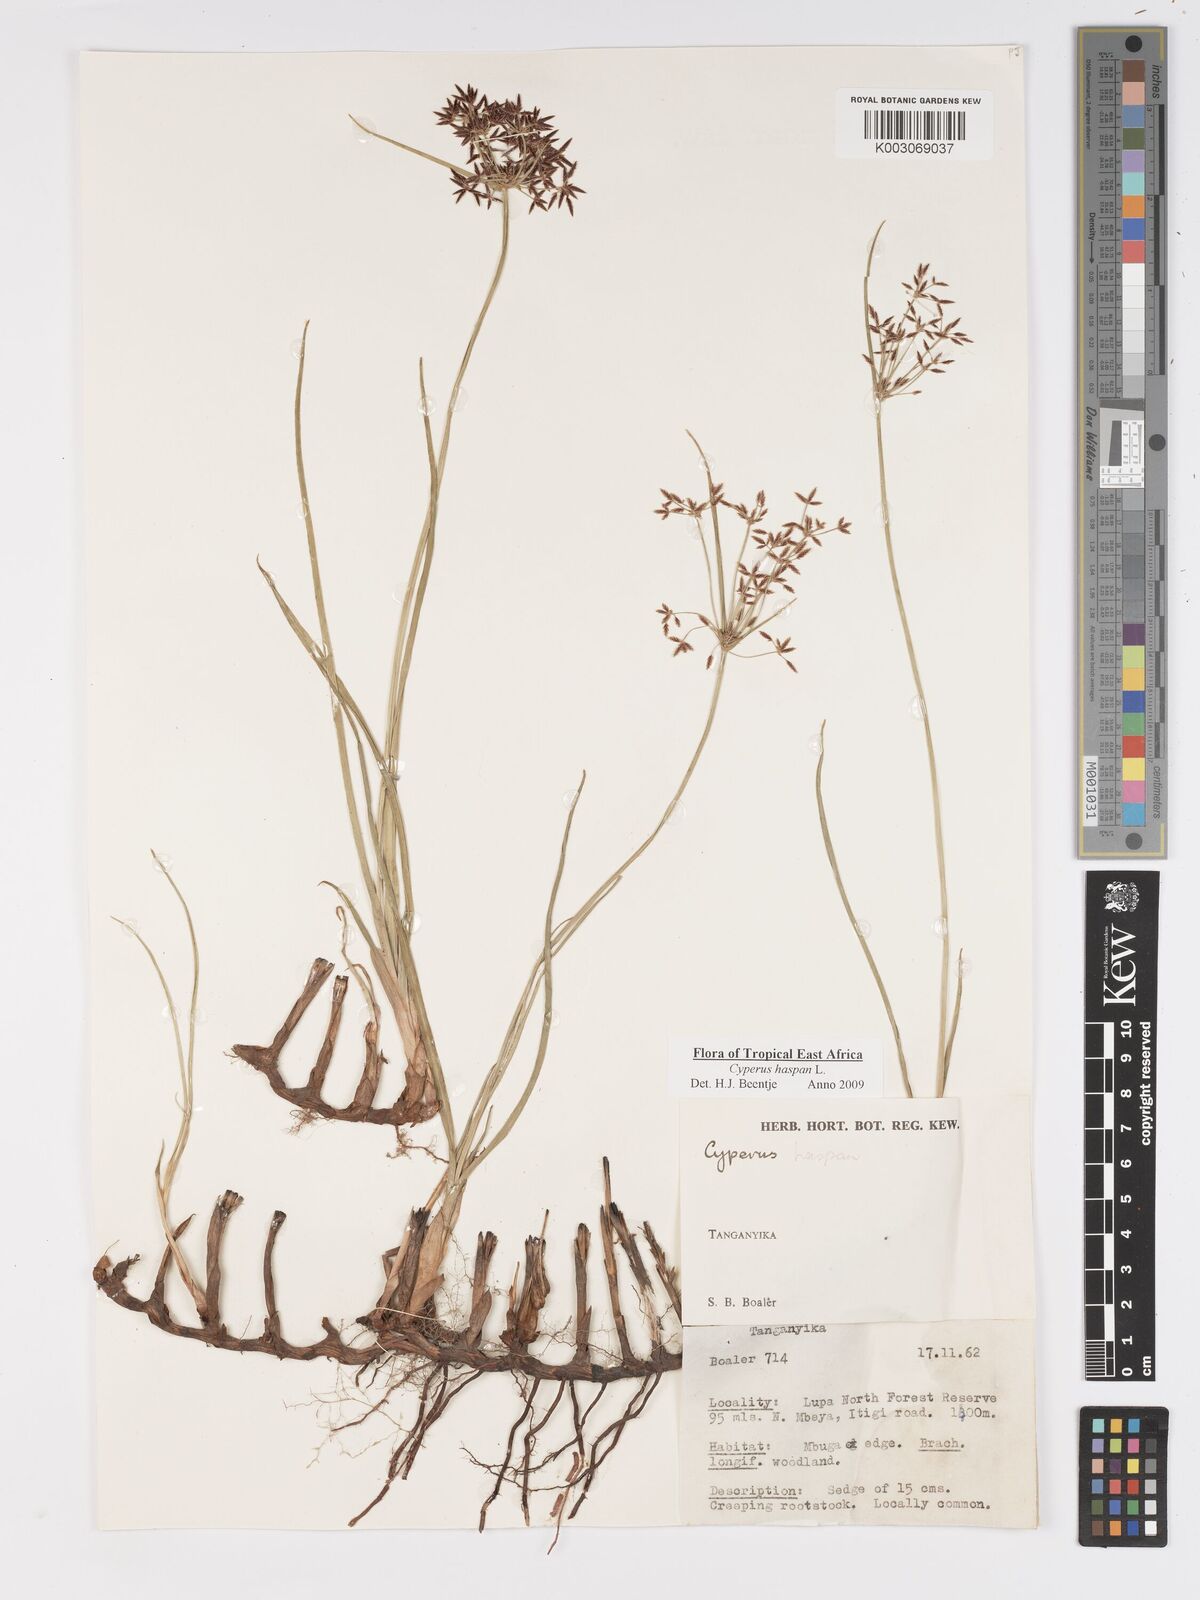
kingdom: Plantae
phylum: Tracheophyta
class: Liliopsida
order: Poales
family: Cyperaceae
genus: Cyperus
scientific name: Cyperus haspan
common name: Haspan flatsedge
